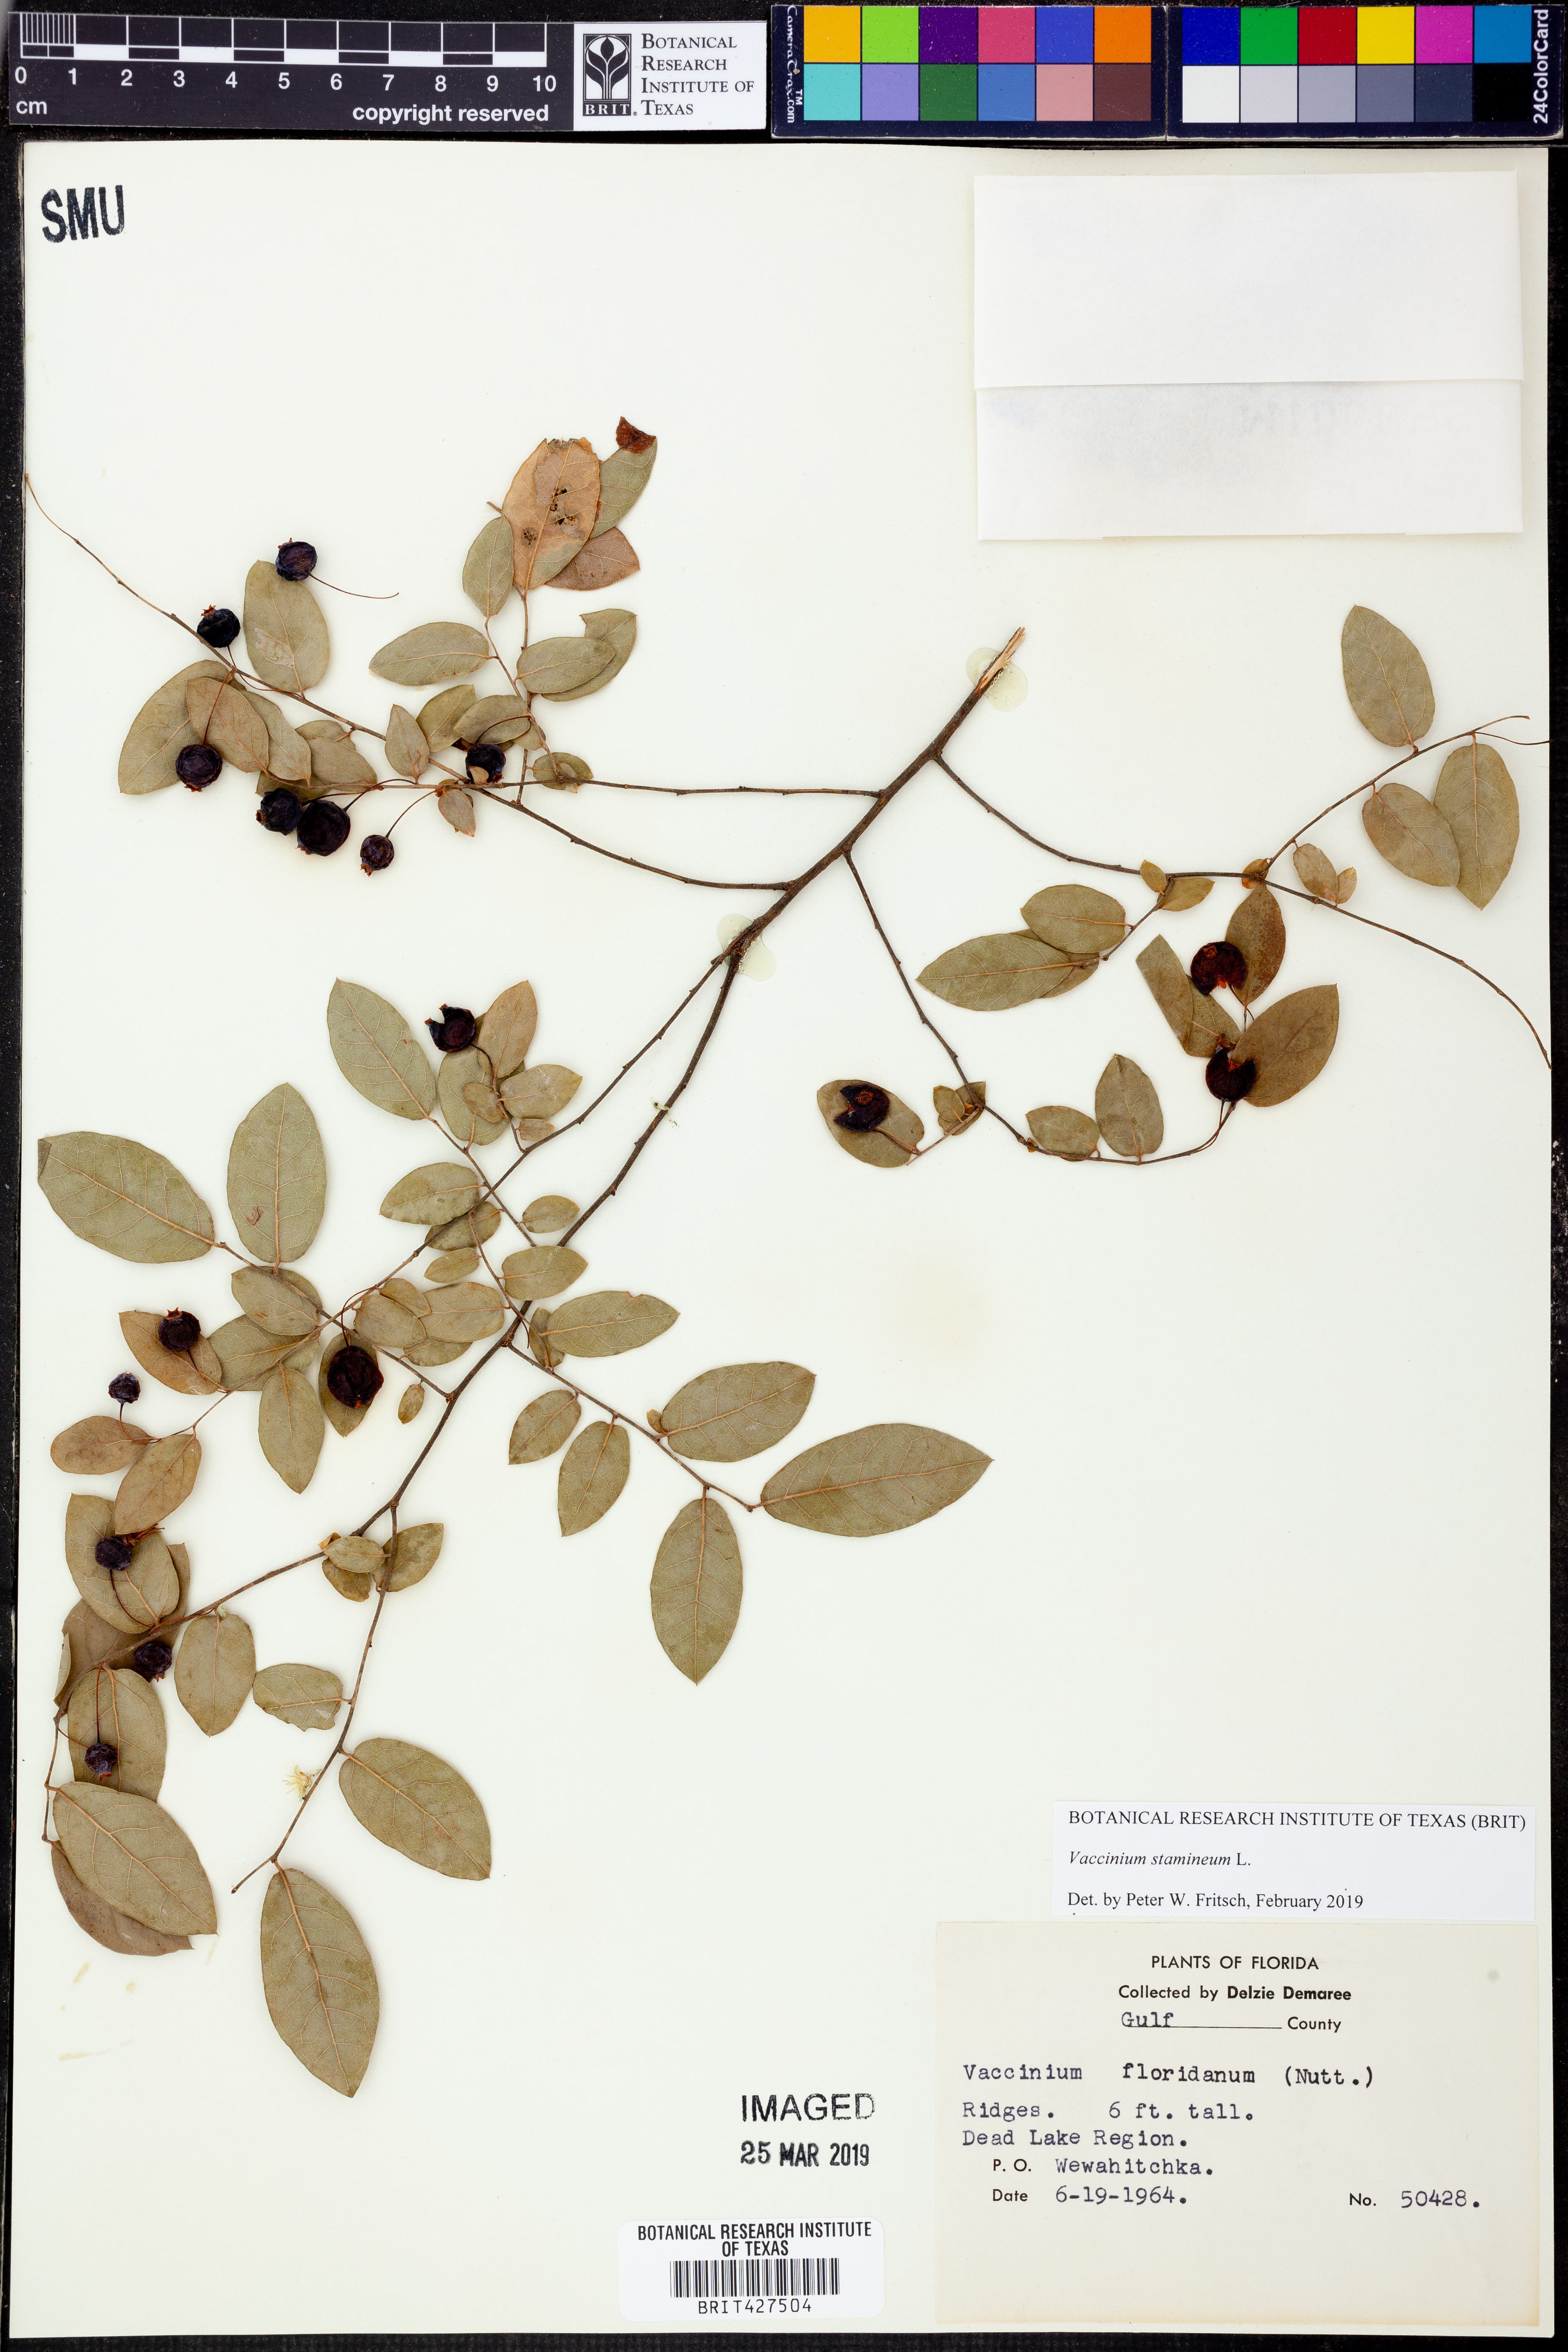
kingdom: Plantae
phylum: Tracheophyta
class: Magnoliopsida
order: Ericales
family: Ericaceae
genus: Vaccinium
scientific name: Vaccinium stamineum
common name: Deerberry
